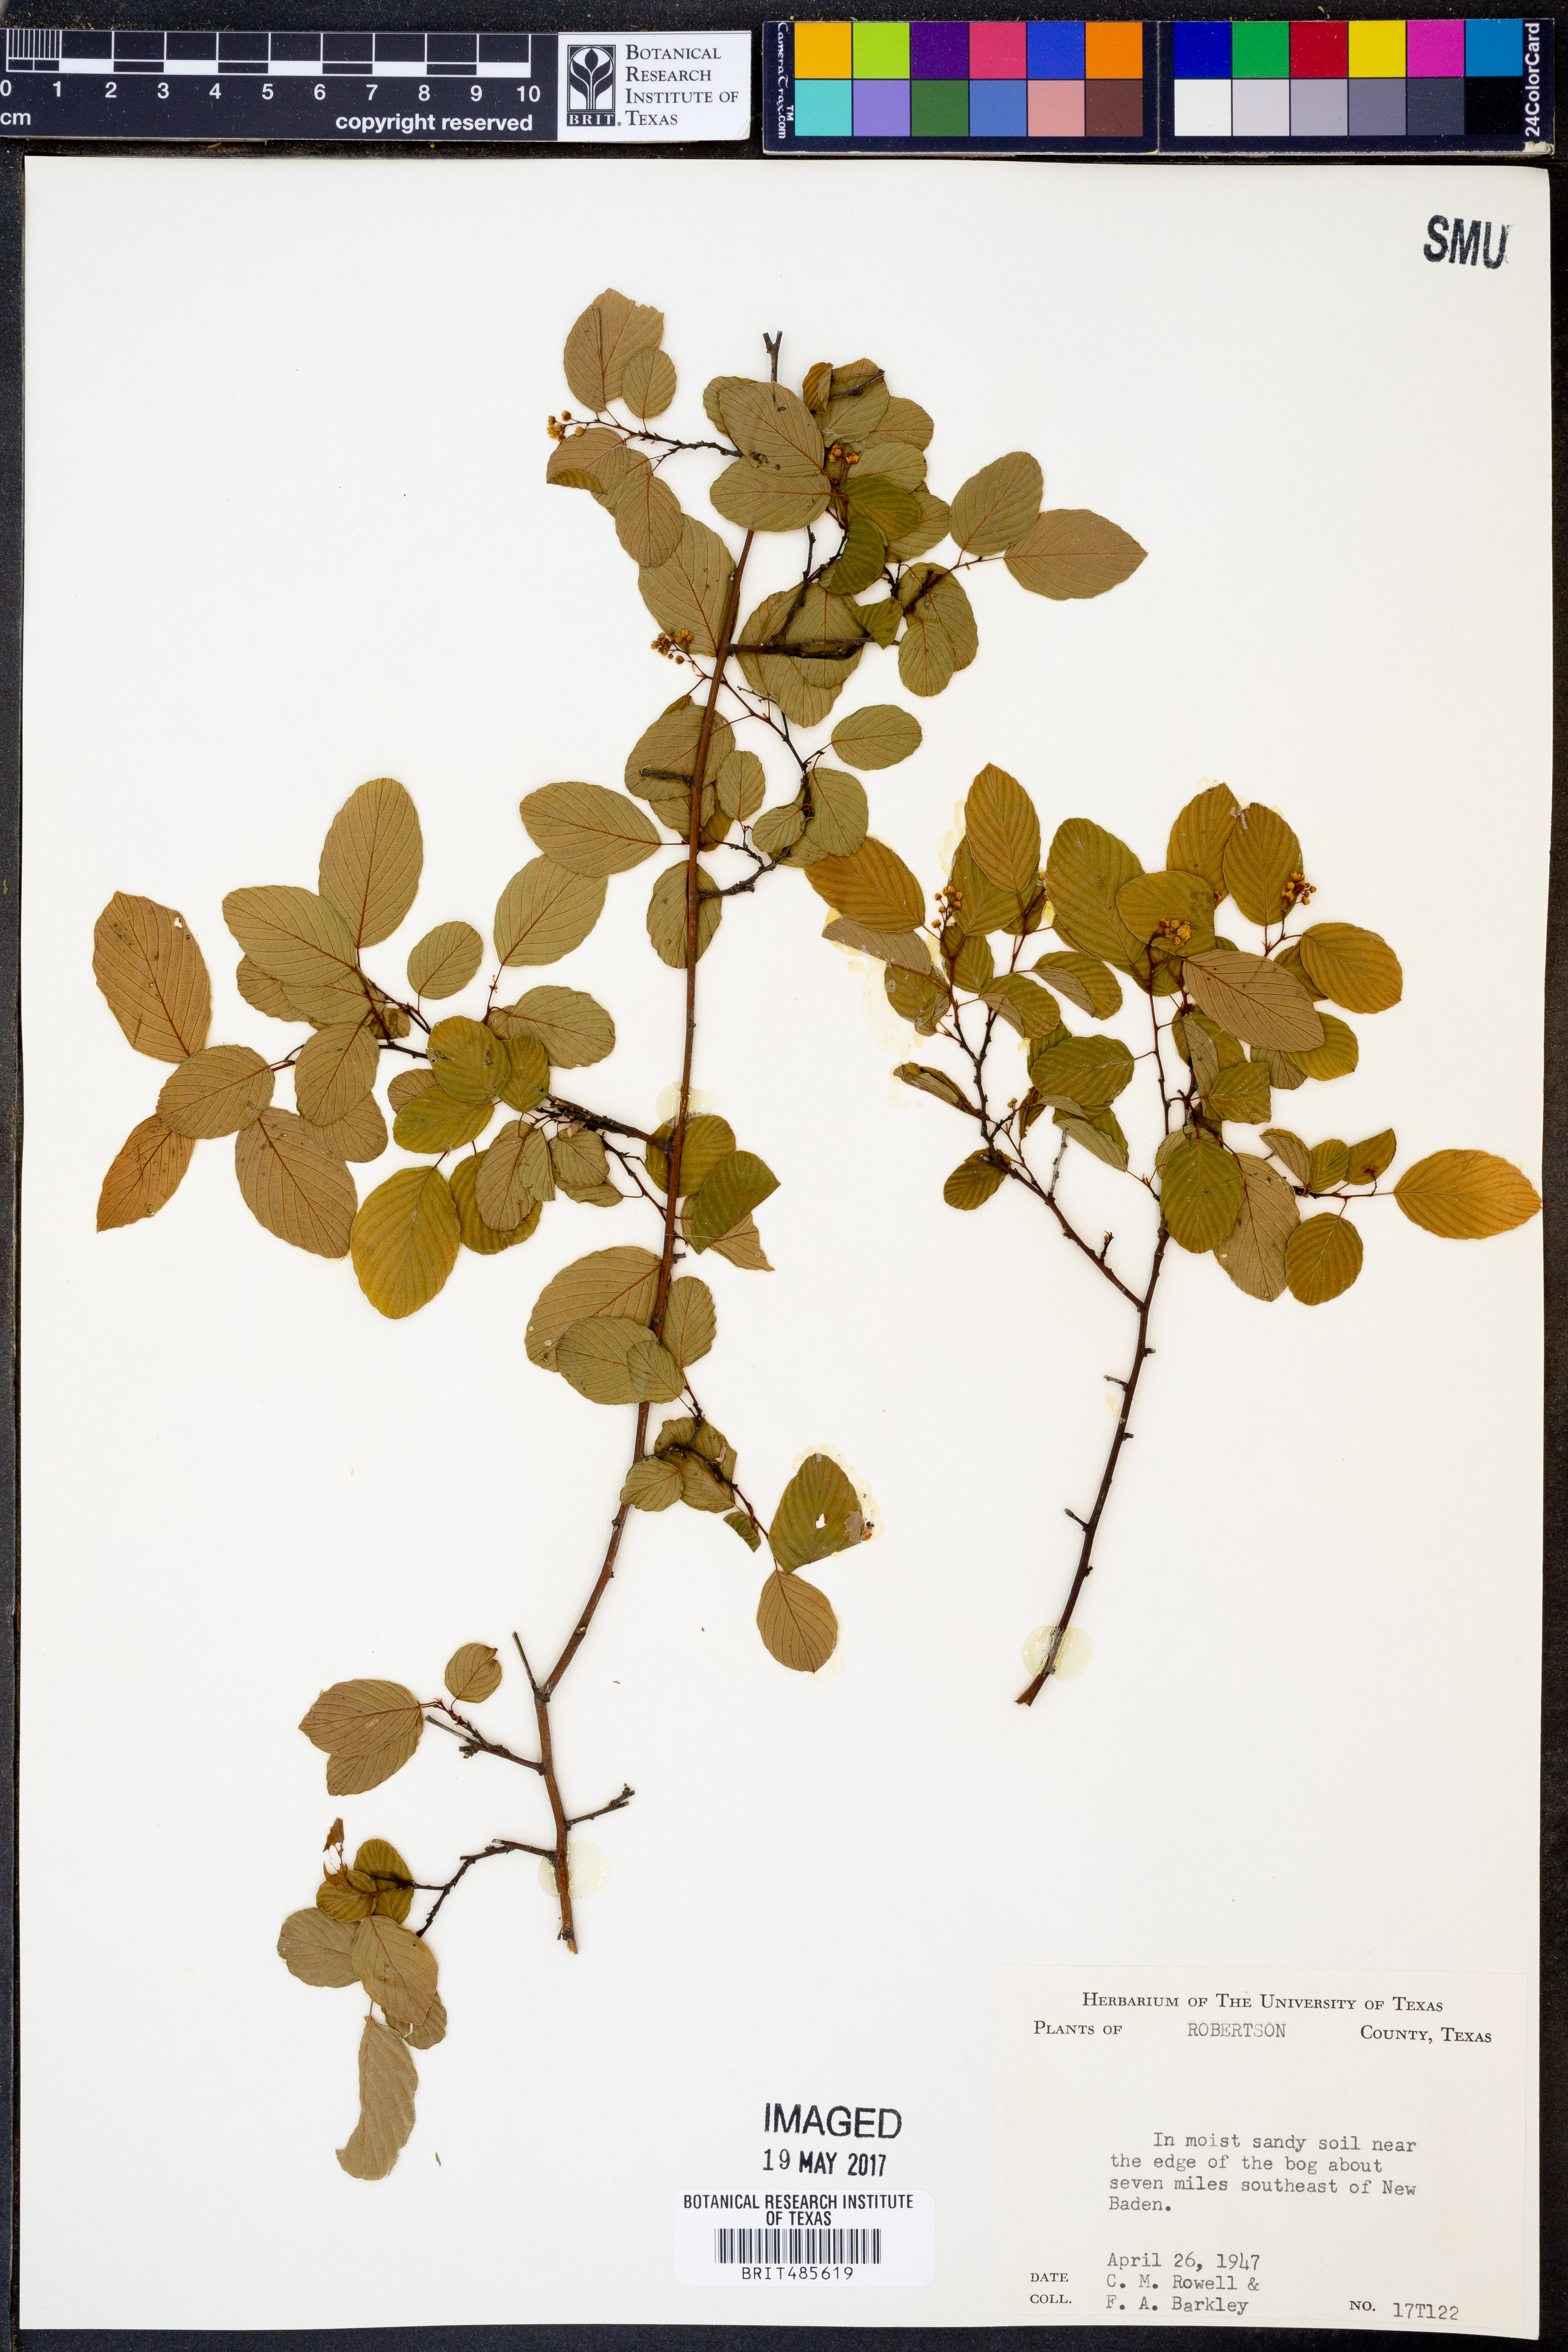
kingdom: Plantae
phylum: Tracheophyta
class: Magnoliopsida
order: Rosales
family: Rhamnaceae
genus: Berchemia
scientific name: Berchemia scandens
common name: Supplejack
